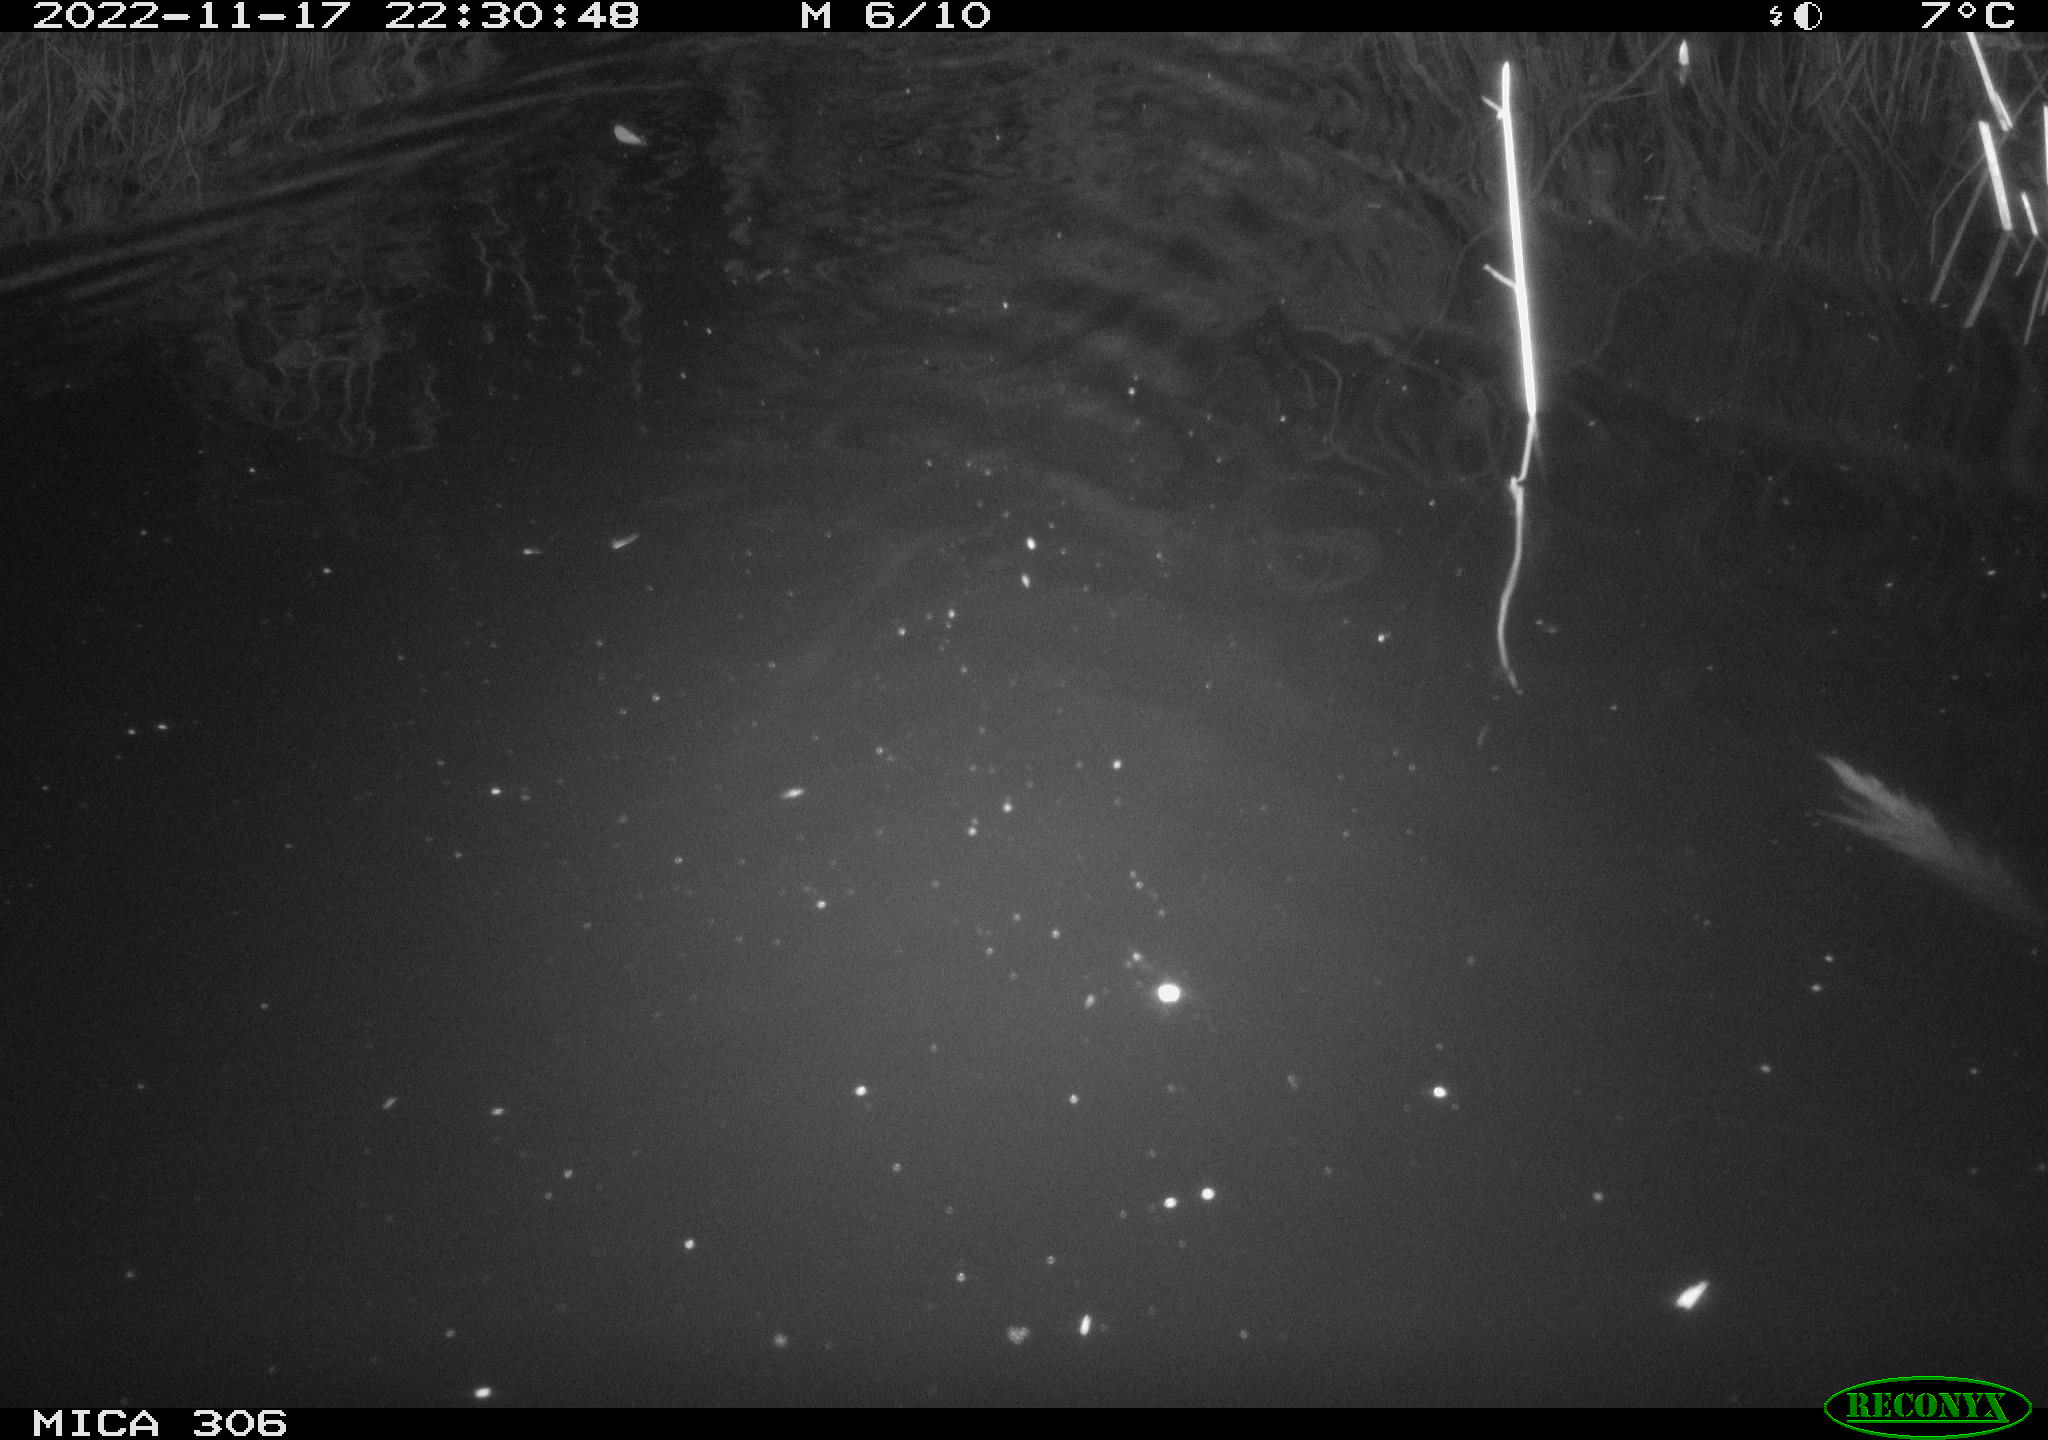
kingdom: Animalia
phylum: Chordata
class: Mammalia
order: Rodentia
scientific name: Rodentia
